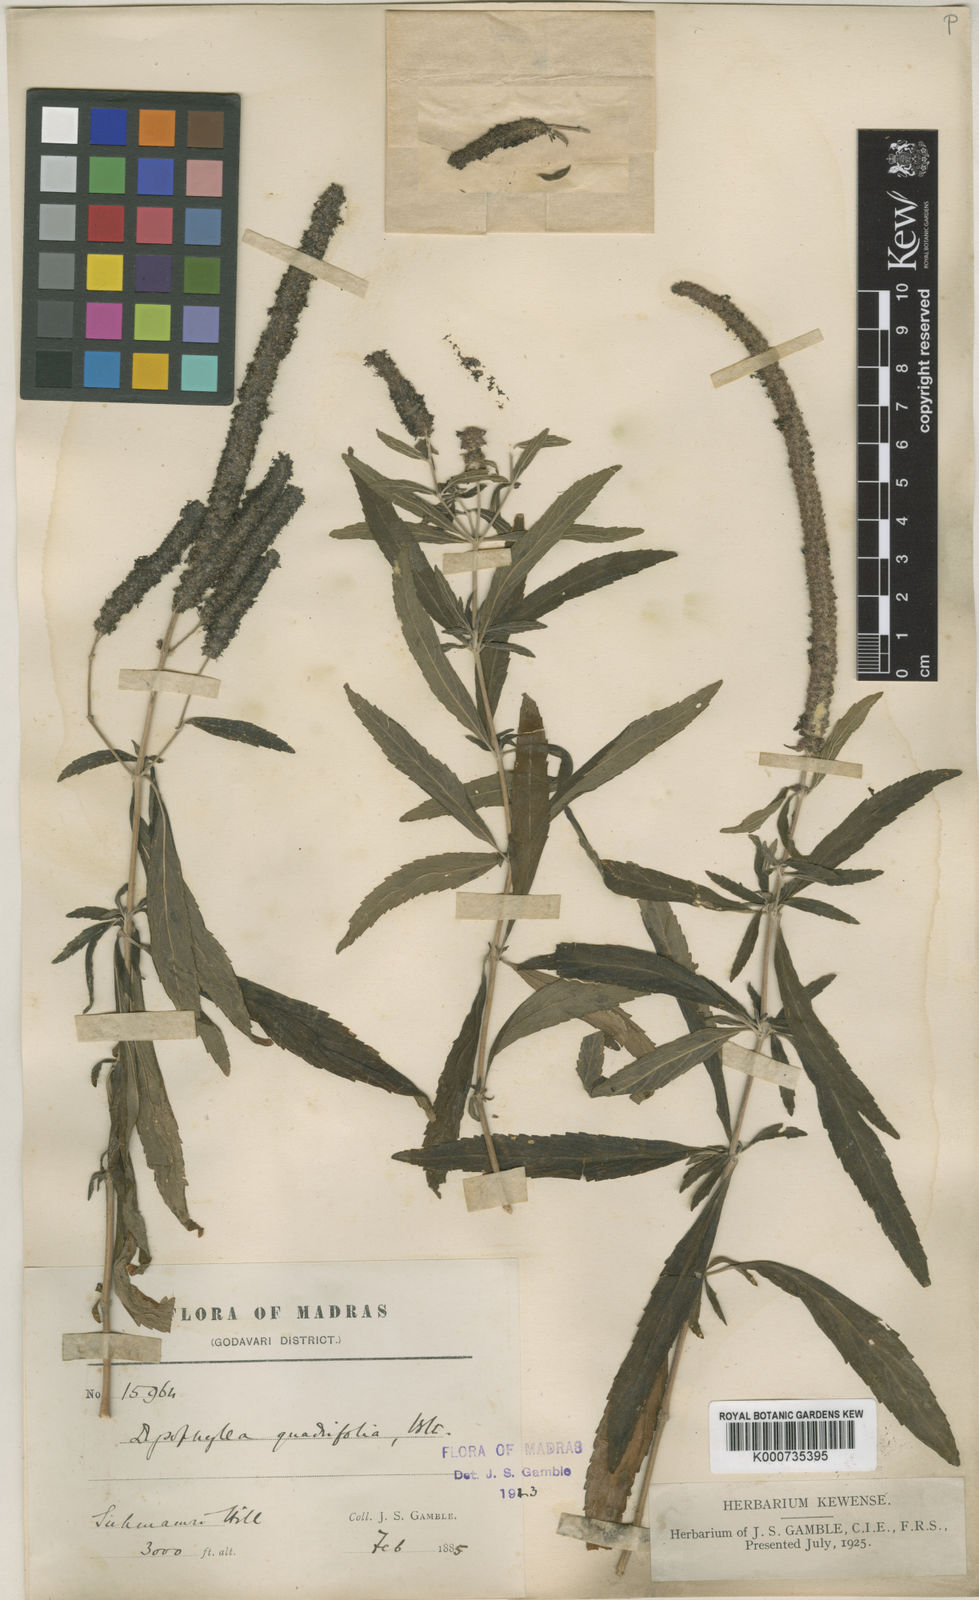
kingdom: Plantae
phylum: Tracheophyta
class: Magnoliopsida
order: Lamiales
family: Lamiaceae
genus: Pogostemon
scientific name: Pogostemon quadrifolius
